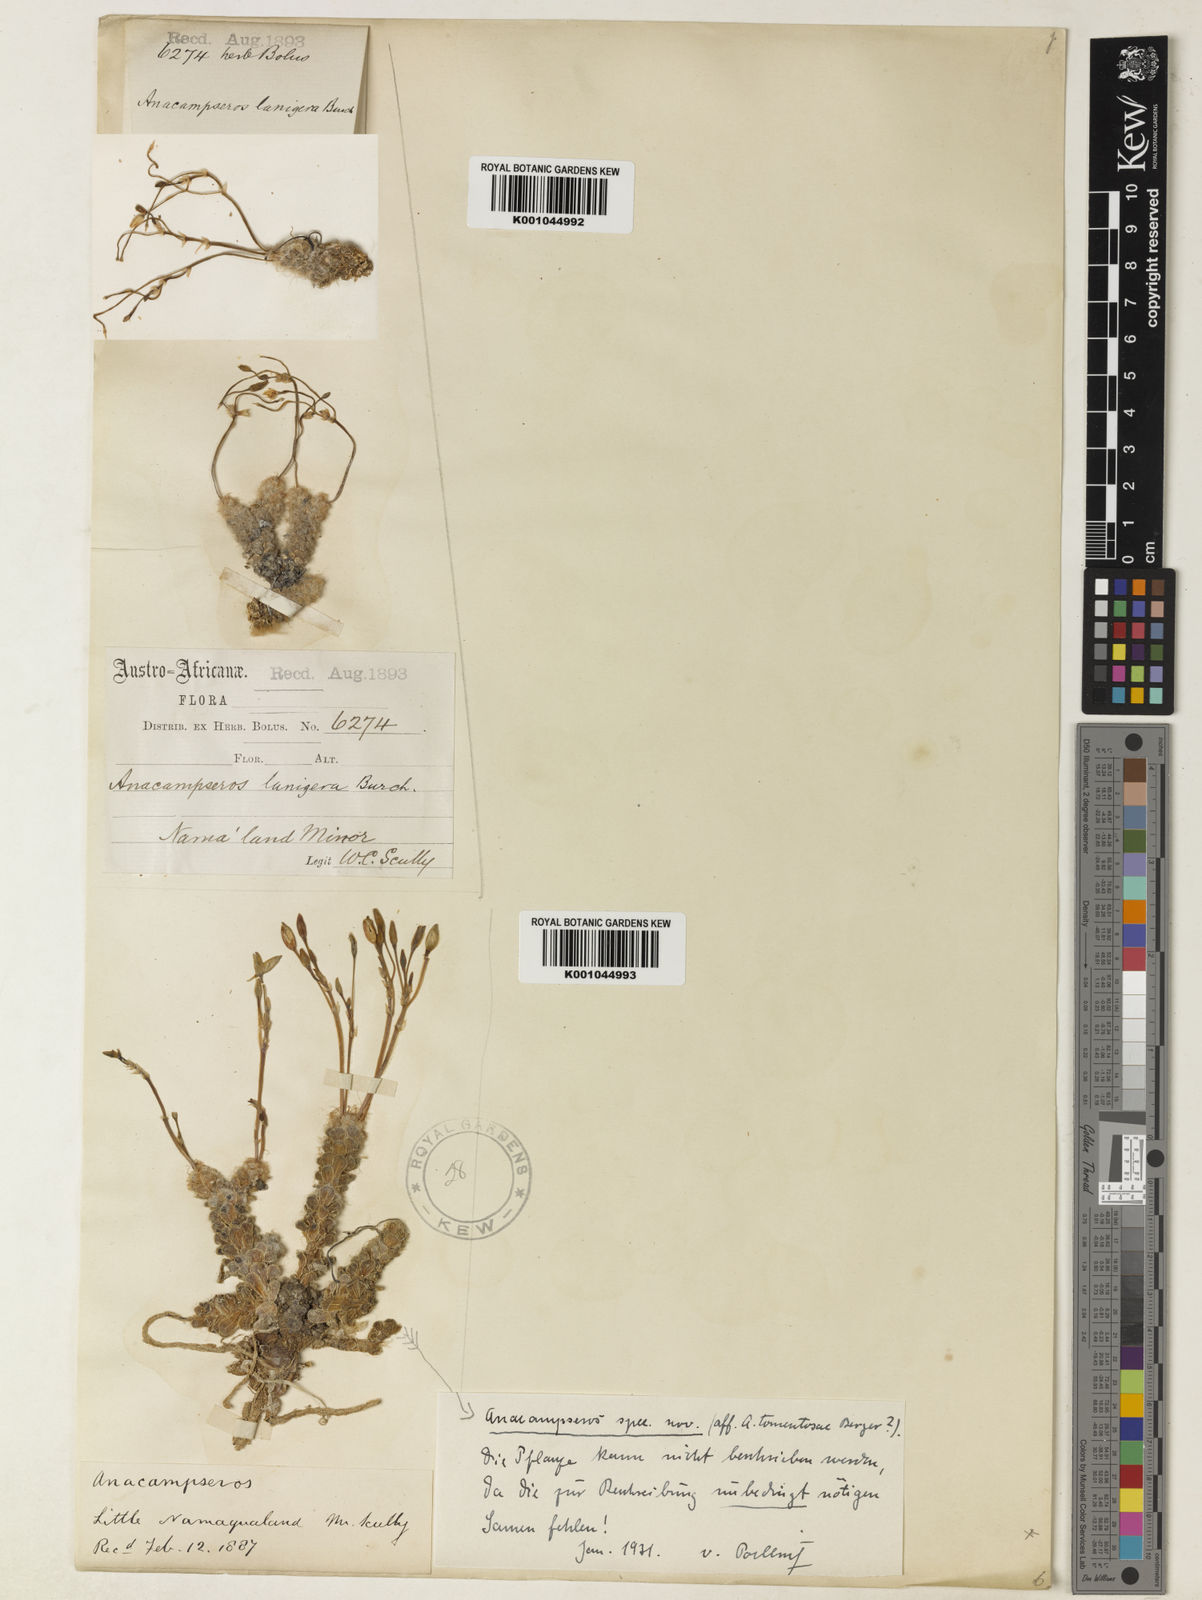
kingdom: Plantae
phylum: Tracheophyta
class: Magnoliopsida
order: Caryophyllales
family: Anacampserotaceae
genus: Anacampseros
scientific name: Anacampseros
